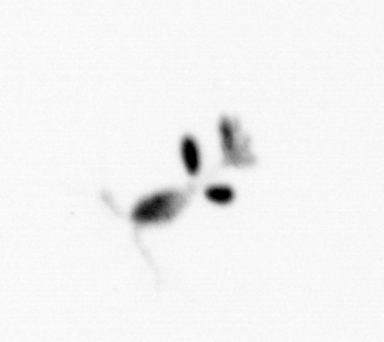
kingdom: Animalia
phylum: Arthropoda
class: Copepoda
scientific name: Copepoda
